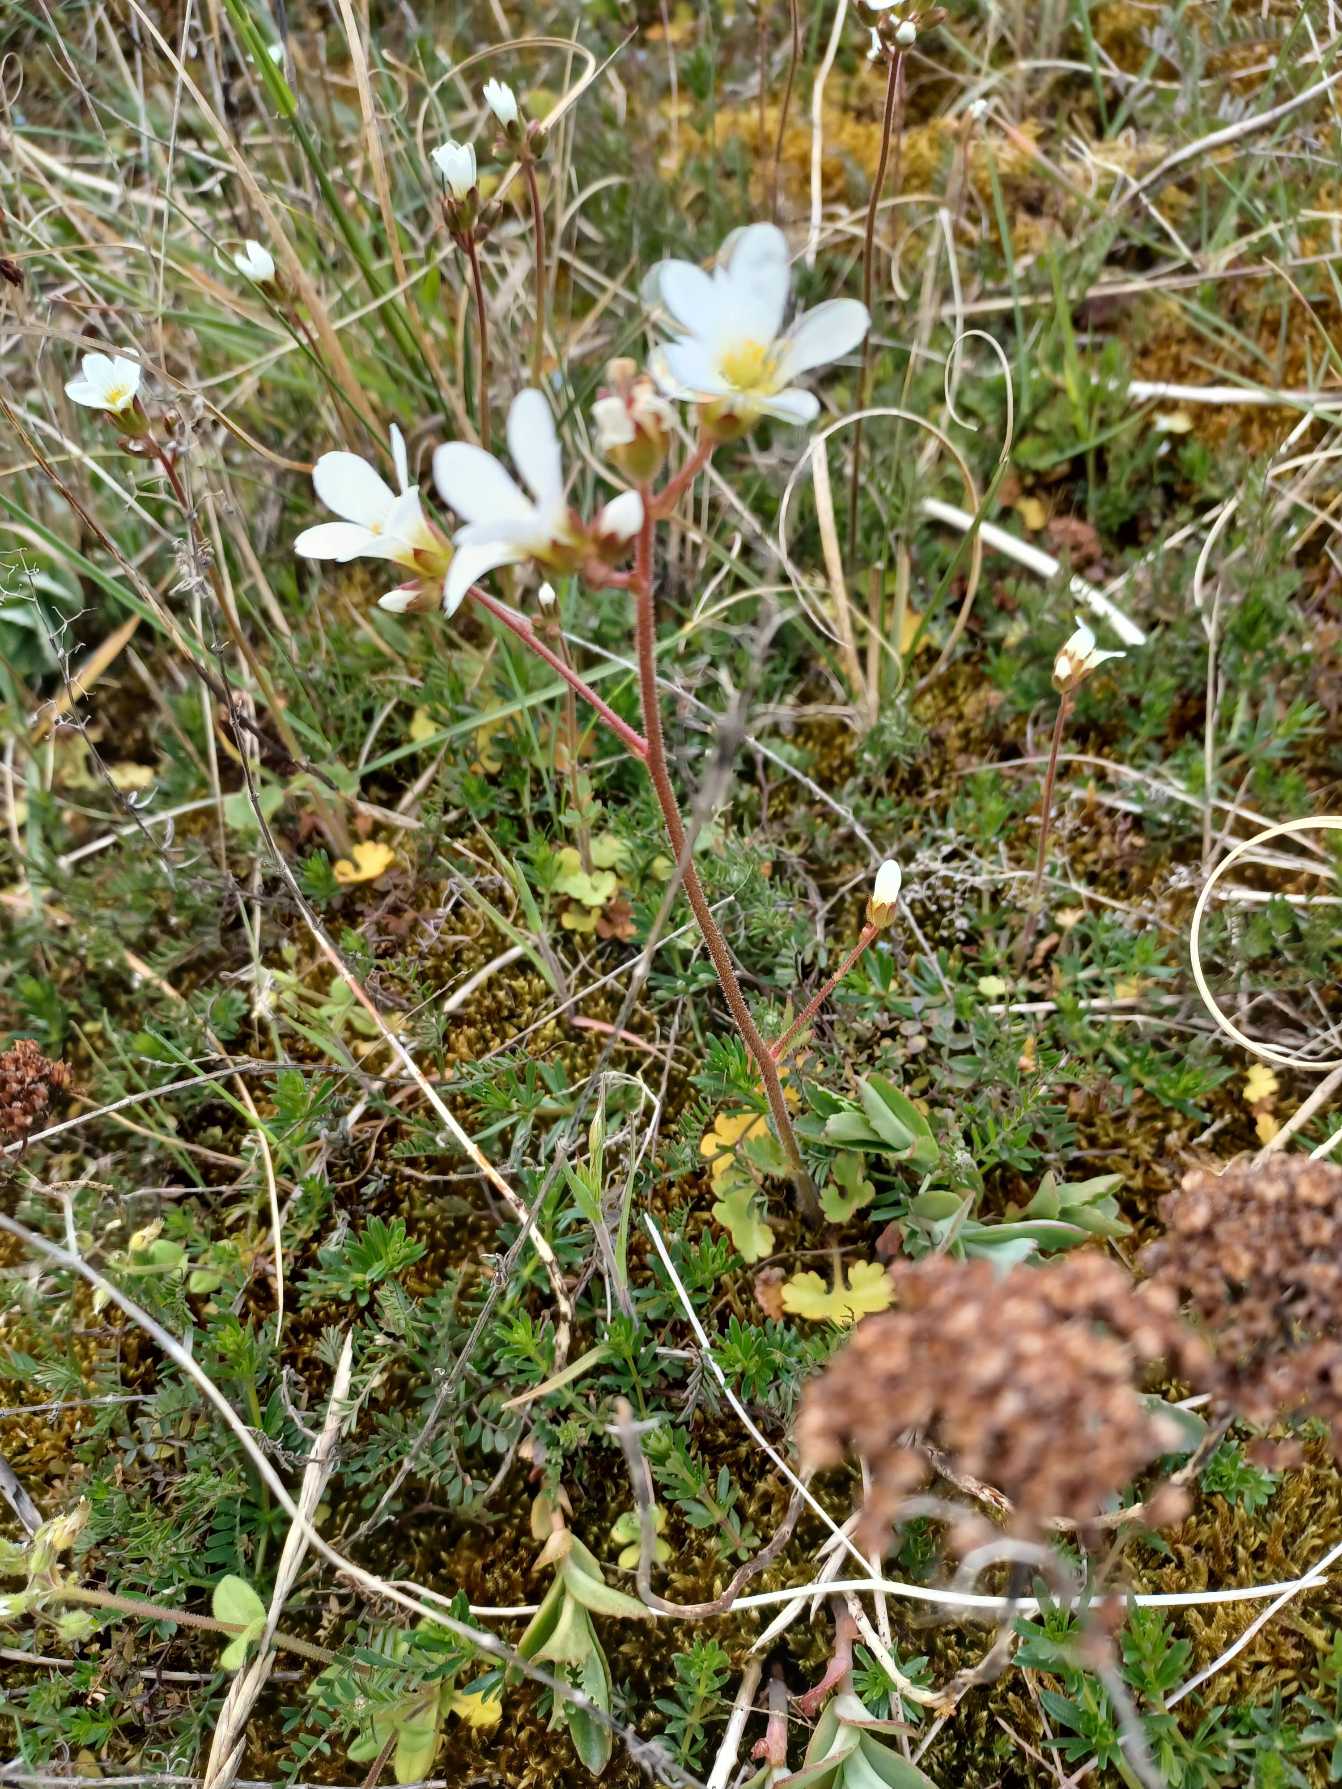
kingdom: Plantae
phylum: Tracheophyta
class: Magnoliopsida
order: Saxifragales
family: Saxifragaceae
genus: Saxifraga
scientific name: Saxifraga granulata
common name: Kornet stenbræk
